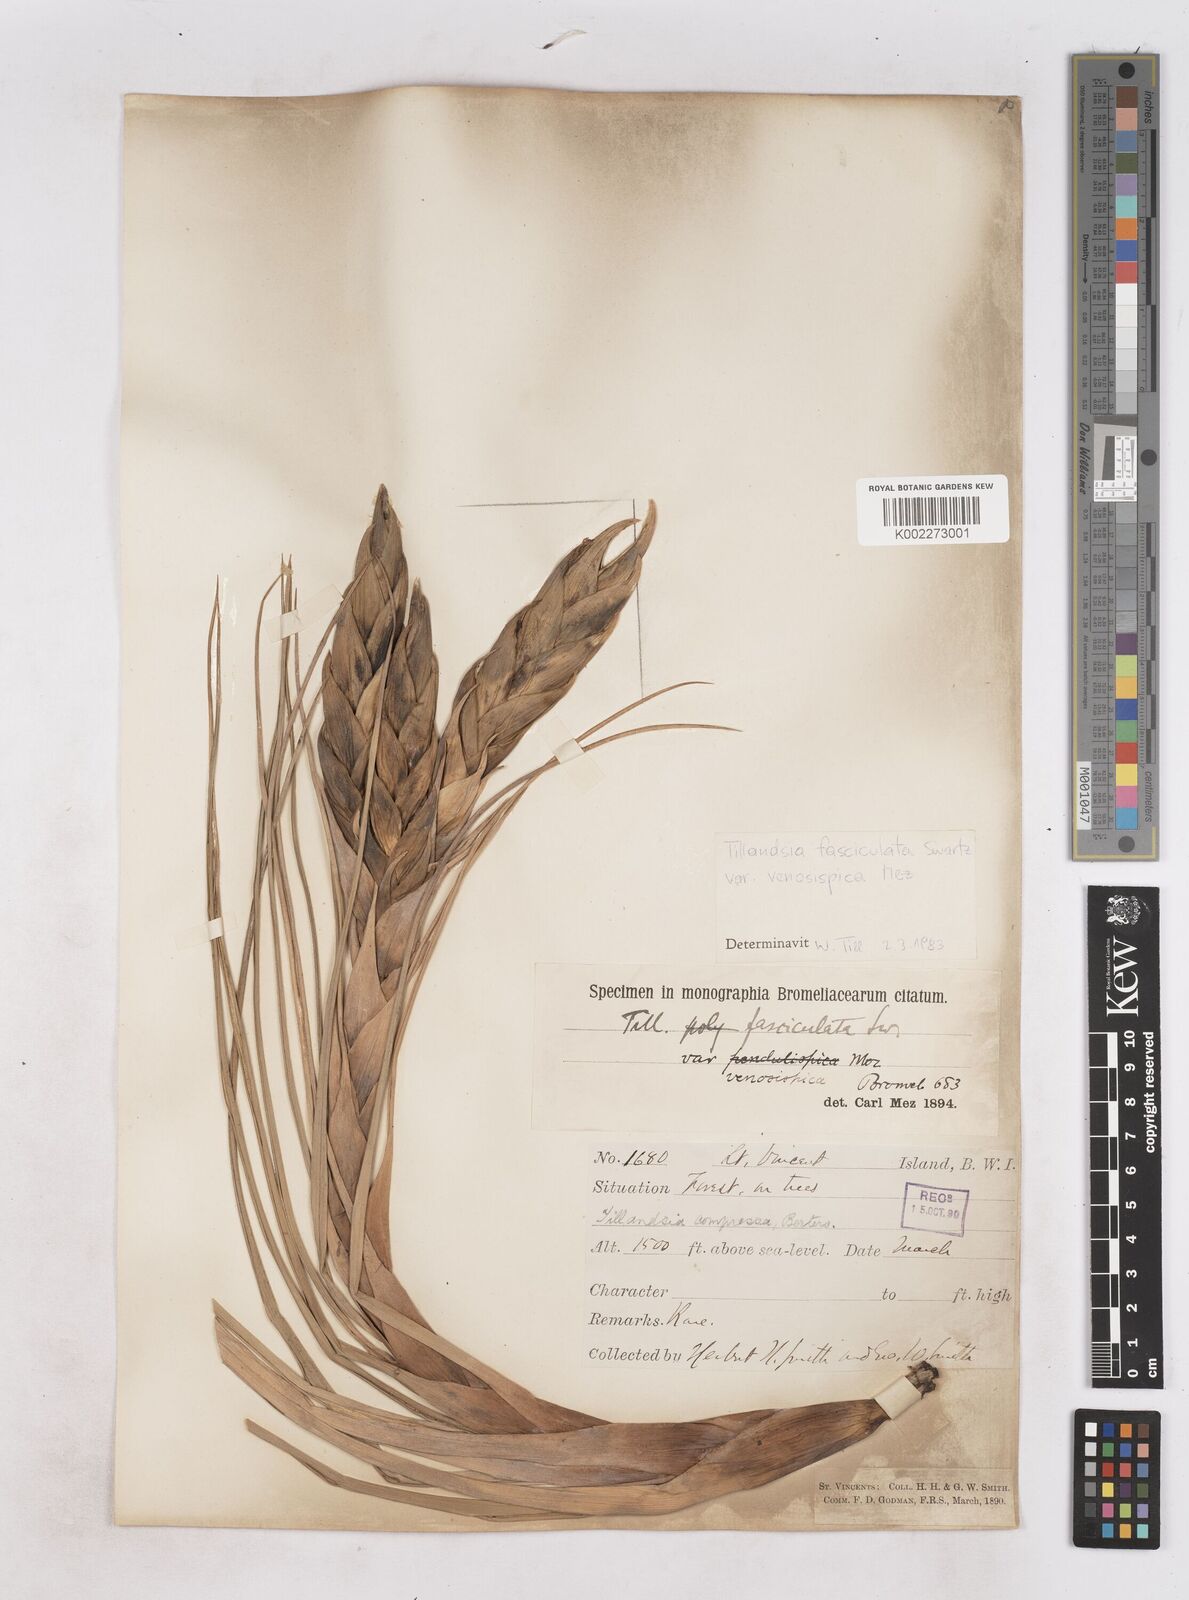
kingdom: Plantae
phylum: Tracheophyta
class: Liliopsida
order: Poales
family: Bromeliaceae
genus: Tillandsia
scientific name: Tillandsia compressa
